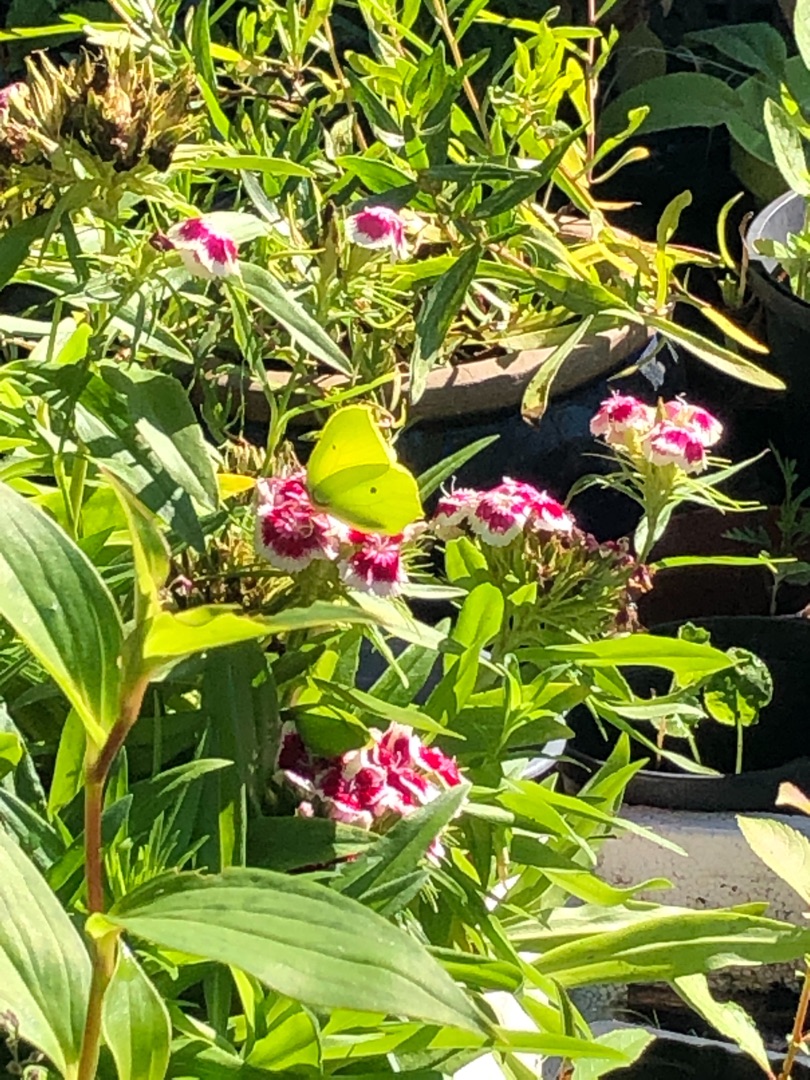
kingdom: Animalia
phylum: Arthropoda
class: Insecta
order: Lepidoptera
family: Pieridae
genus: Gonepteryx
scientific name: Gonepteryx rhamni
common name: Citronsommerfugl
